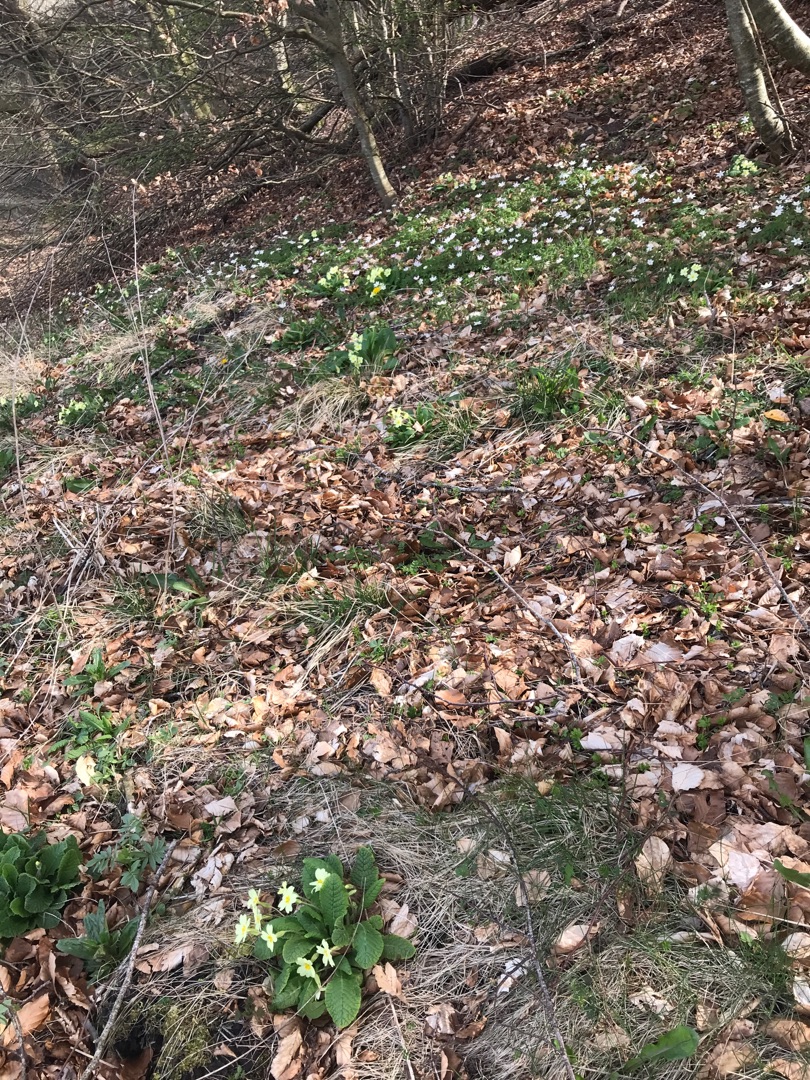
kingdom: Plantae
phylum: Tracheophyta
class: Magnoliopsida
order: Ericales
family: Primulaceae
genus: Primula
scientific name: Primula vulgaris
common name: Storblomstret kodriver
